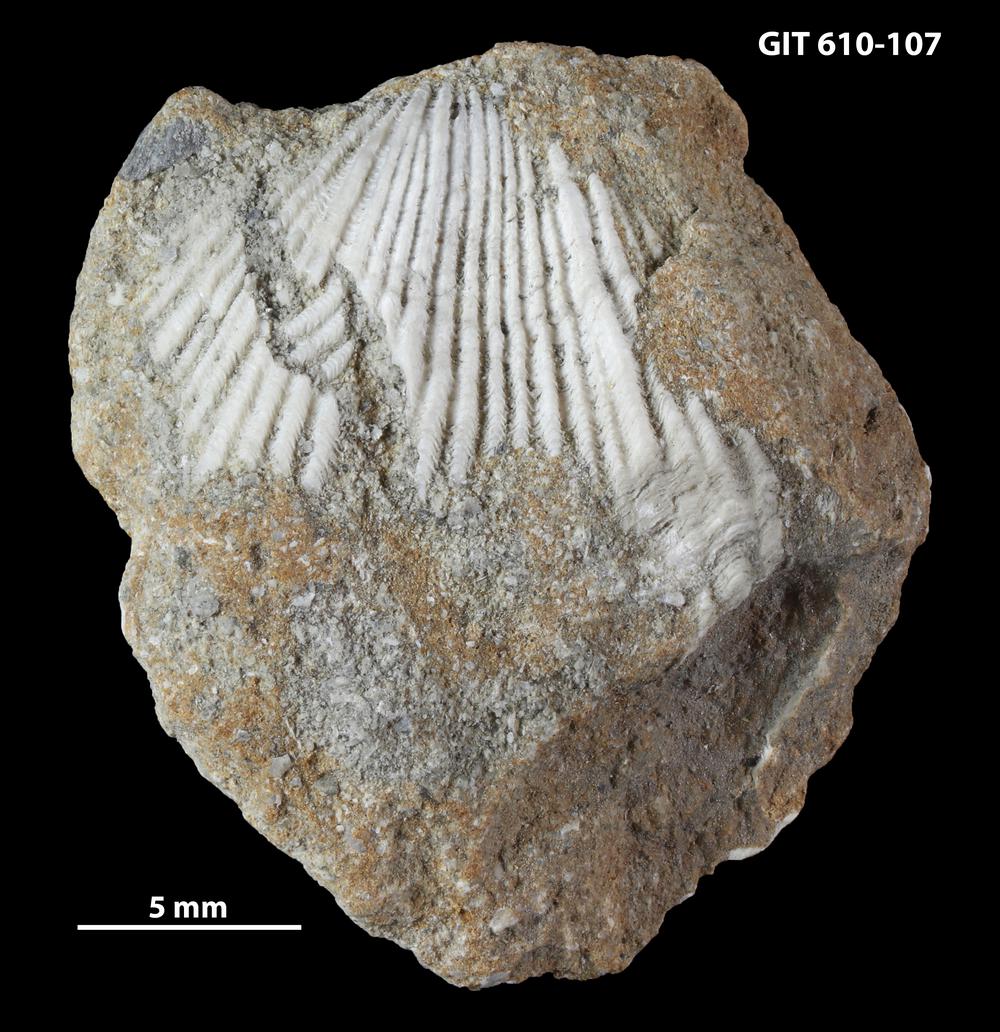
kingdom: Animalia
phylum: Brachiopoda
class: Rhynchonellata
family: Triplesiidae
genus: Cliftonia
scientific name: Cliftonia
